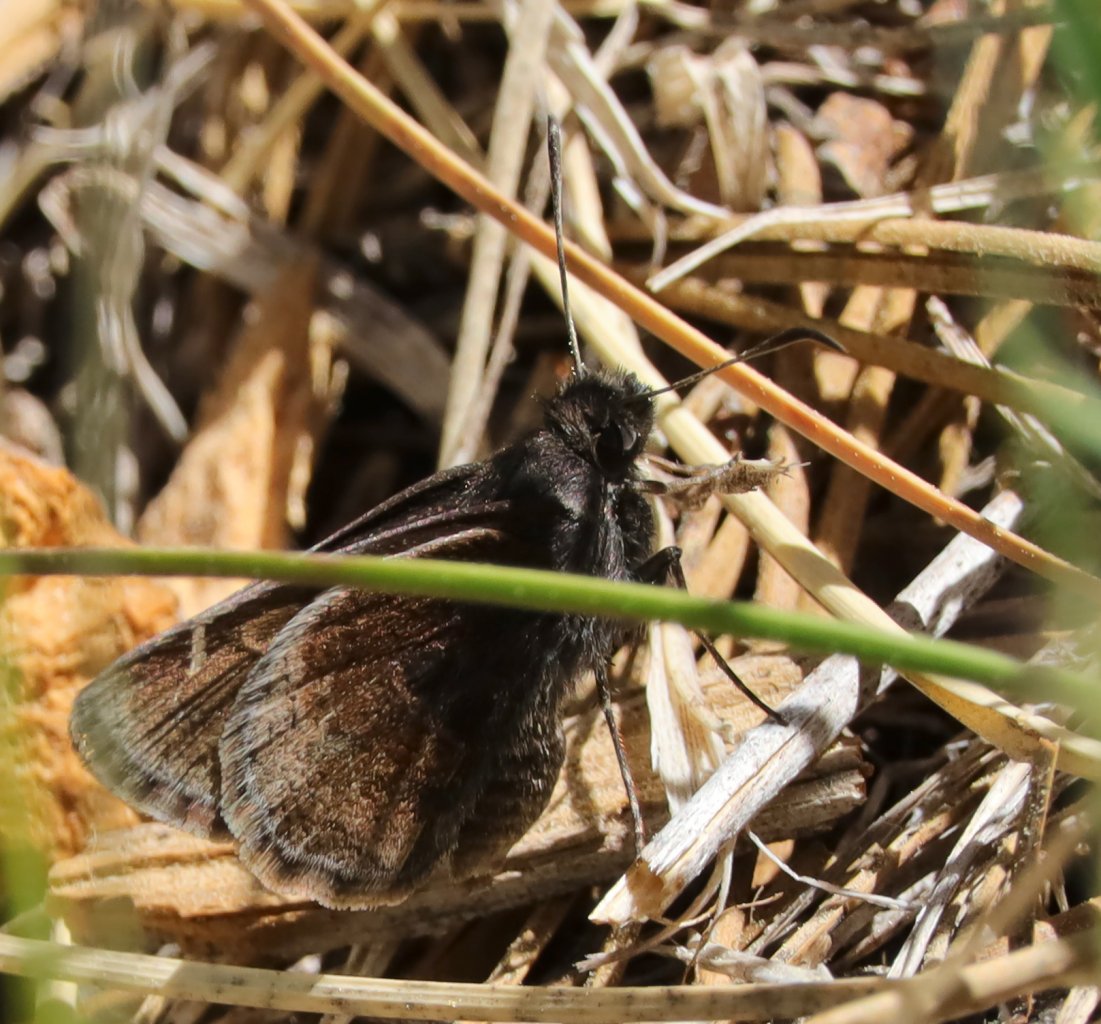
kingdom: Animalia
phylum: Arthropoda
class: Insecta
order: Lepidoptera
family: Hesperiidae
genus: Thorybes
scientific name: Thorybes mexicana
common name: Mexican Cloudywing
